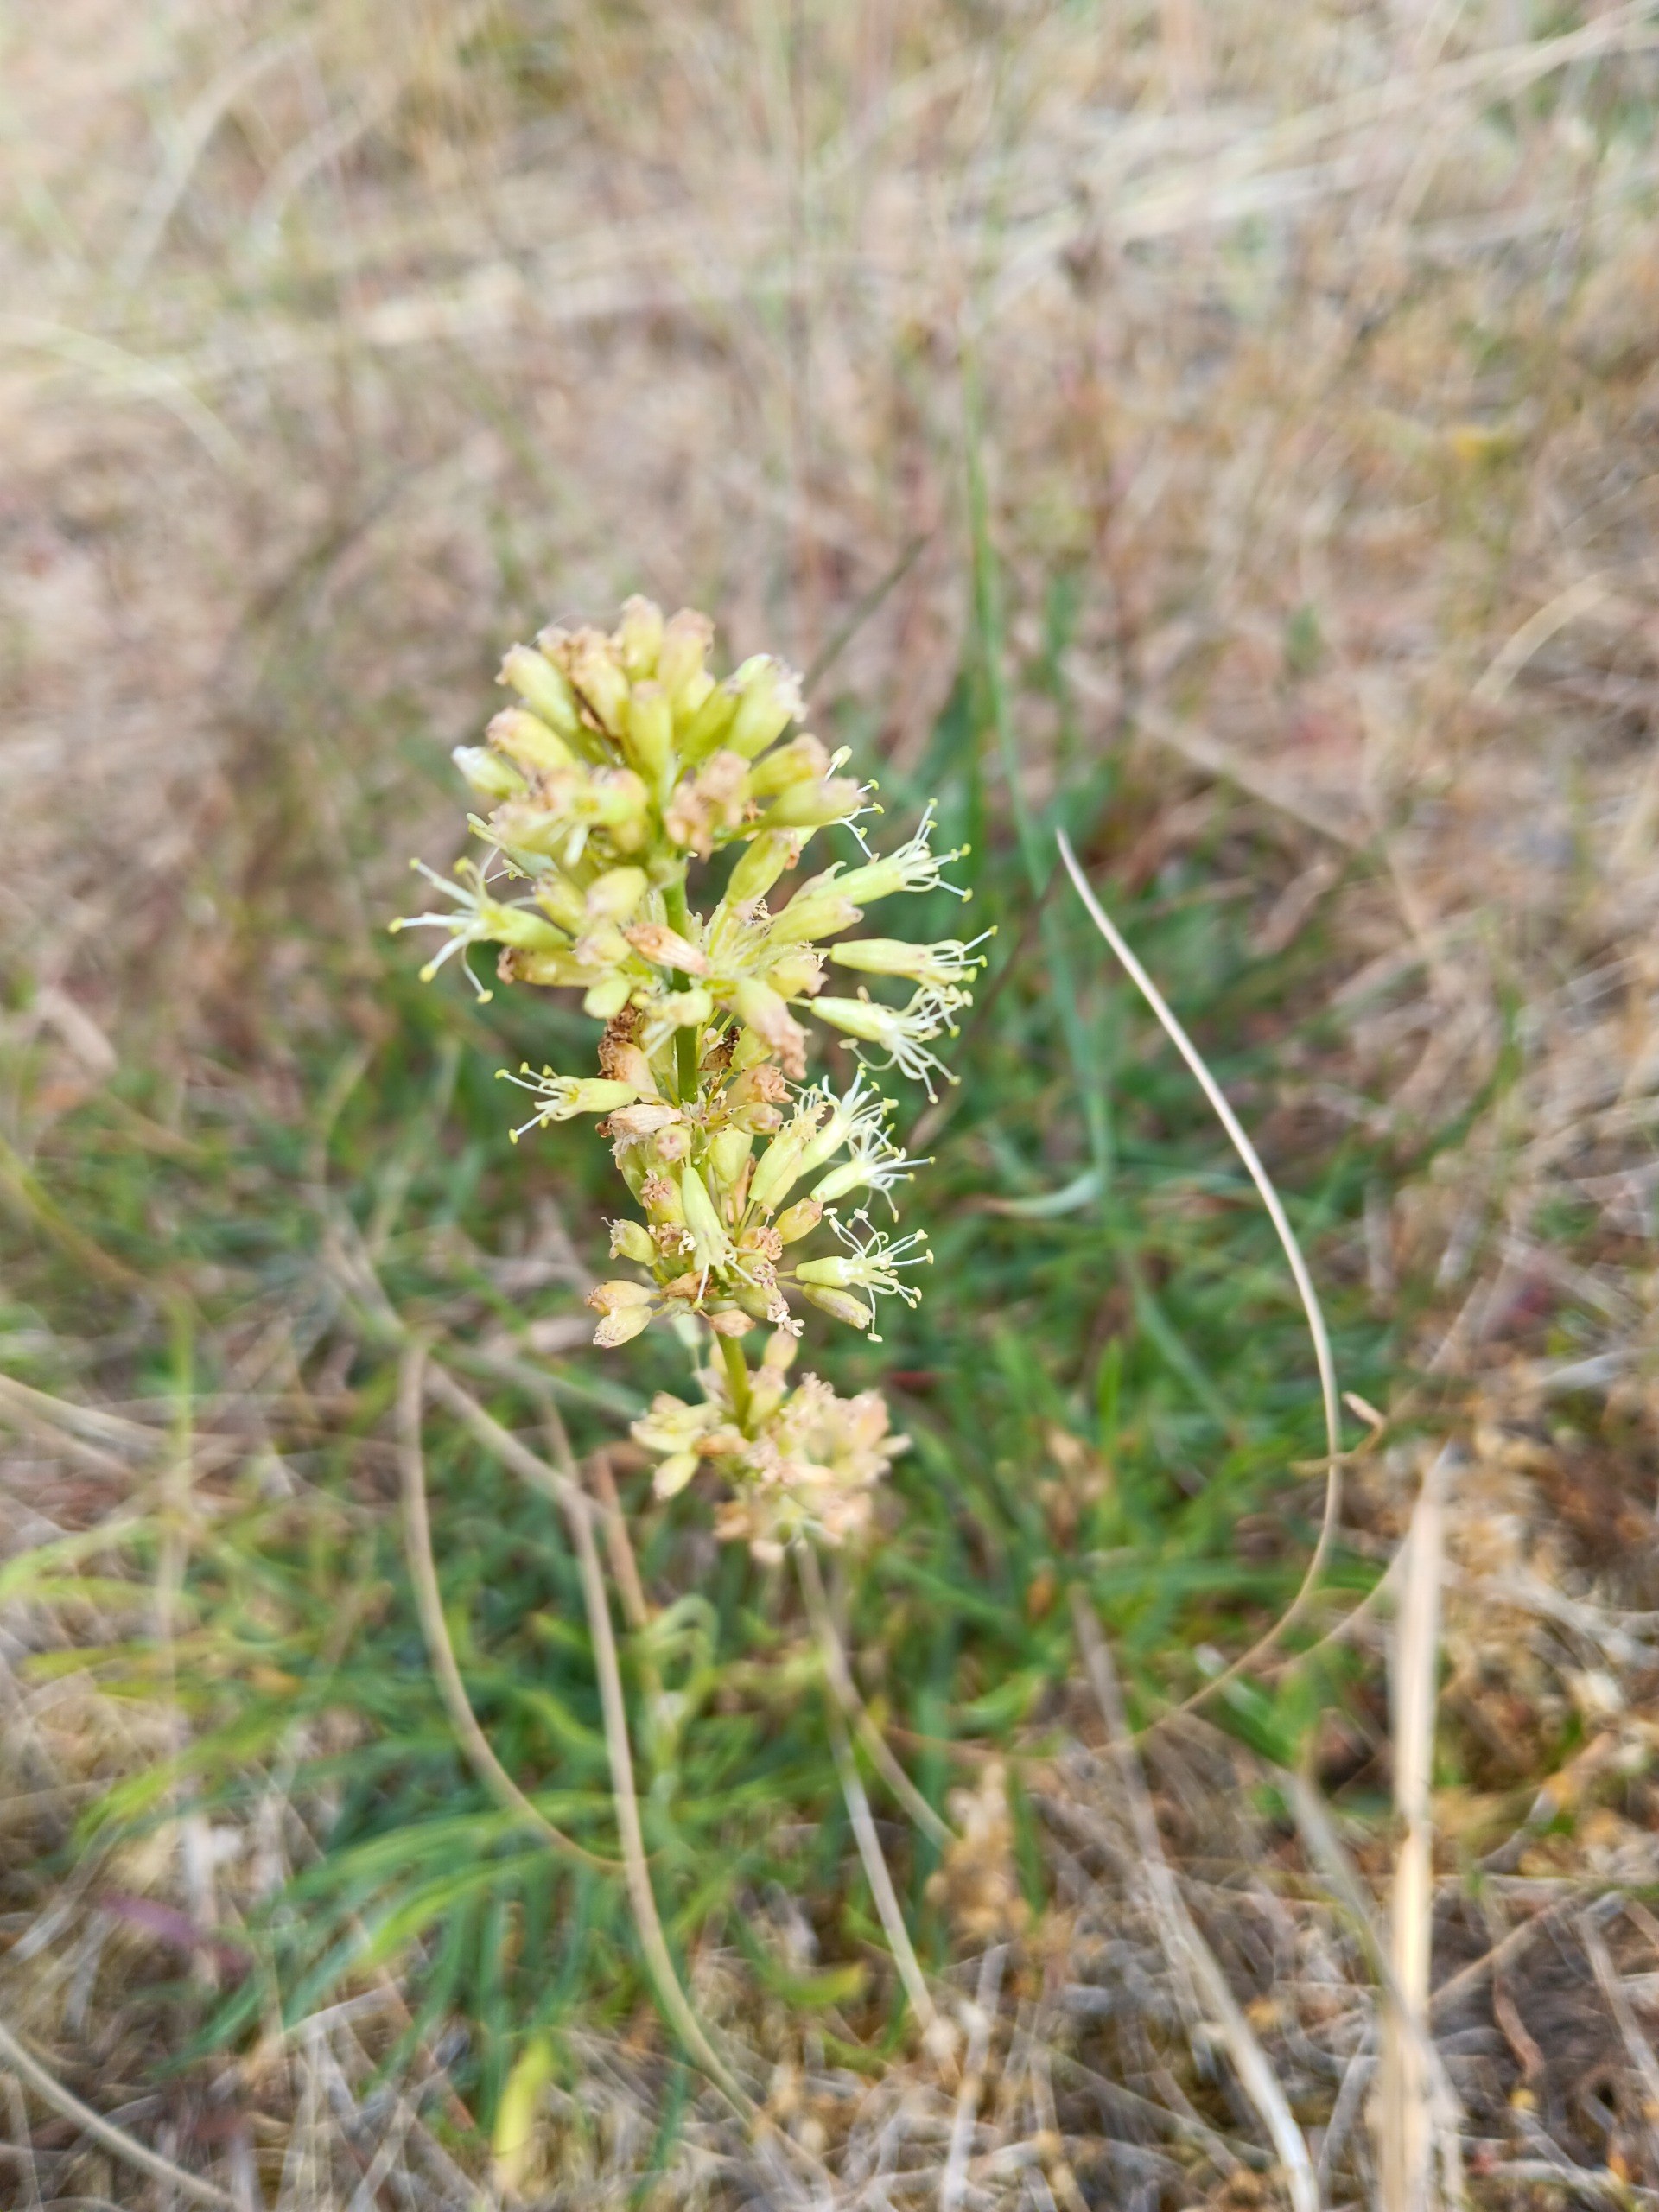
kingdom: Plantae
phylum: Tracheophyta
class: Magnoliopsida
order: Caryophyllales
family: Caryophyllaceae
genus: Silene
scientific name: Silene otites
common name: Klit-limurt
